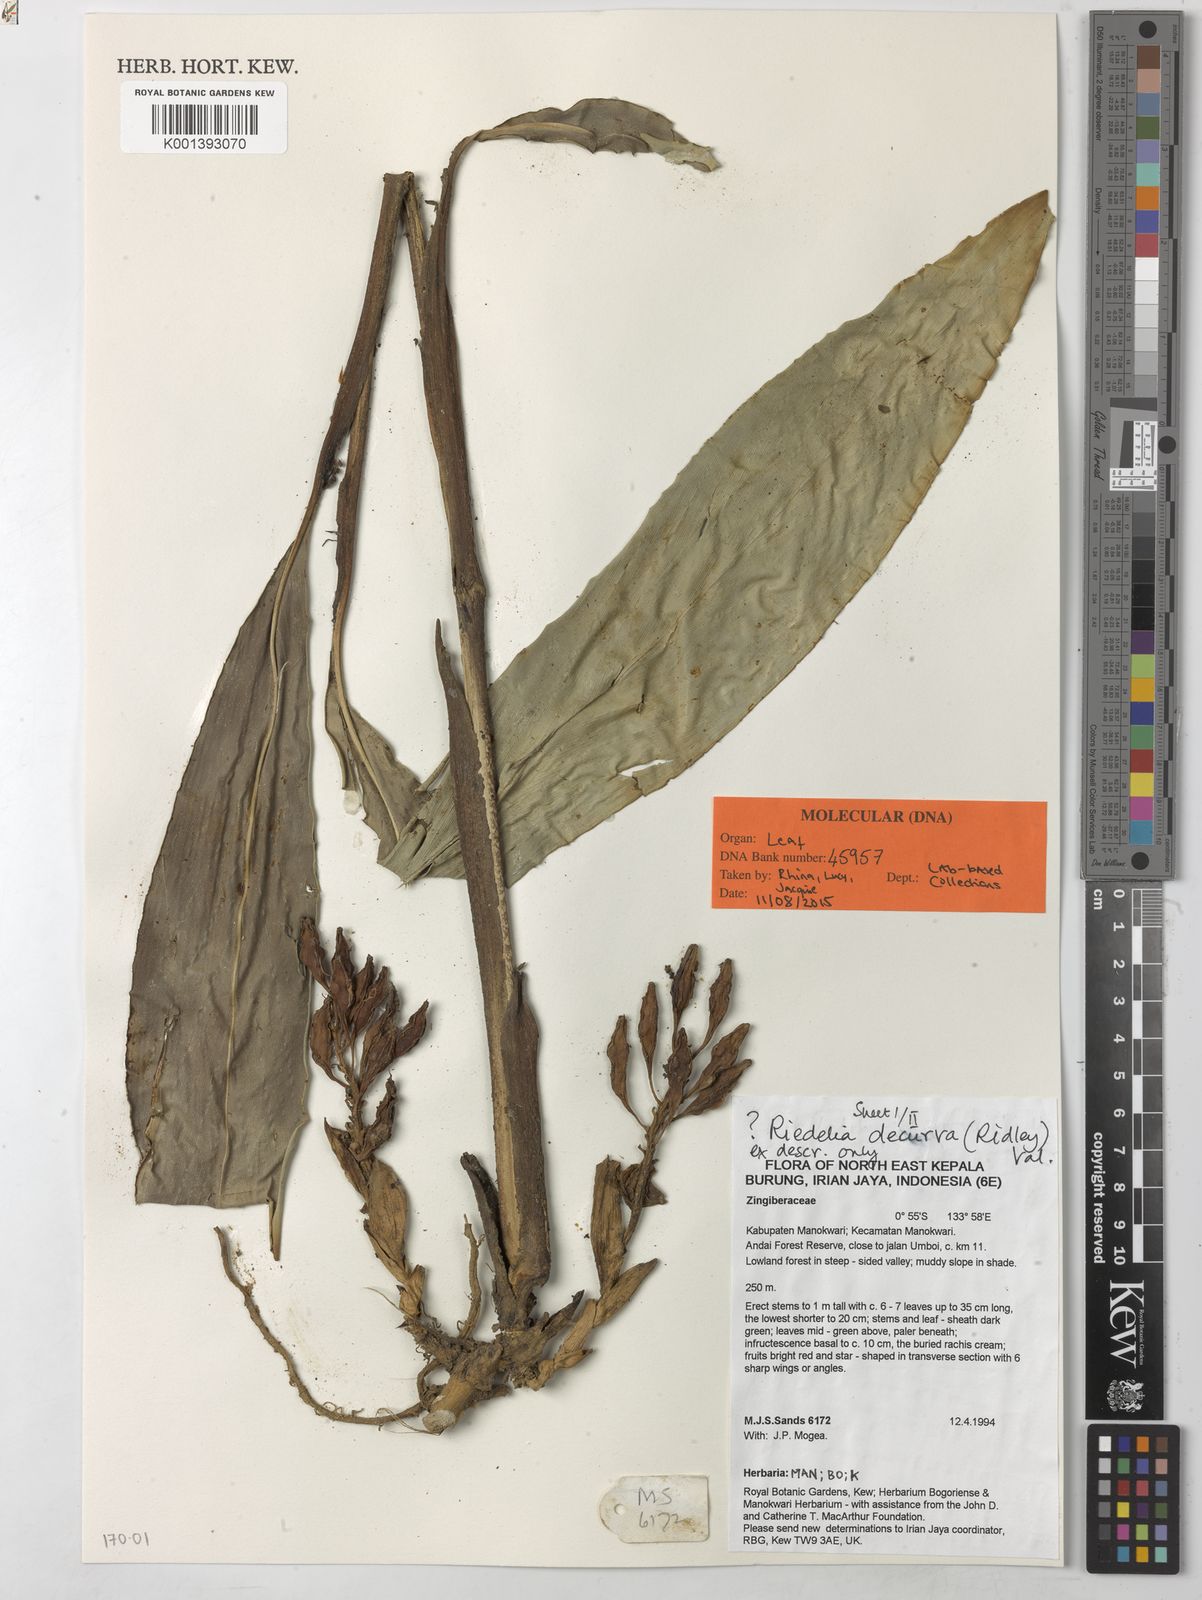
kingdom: Plantae
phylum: Tracheophyta
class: Liliopsida
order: Zingiberales
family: Zingiberaceae
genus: Riedelia
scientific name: Riedelia decurva
